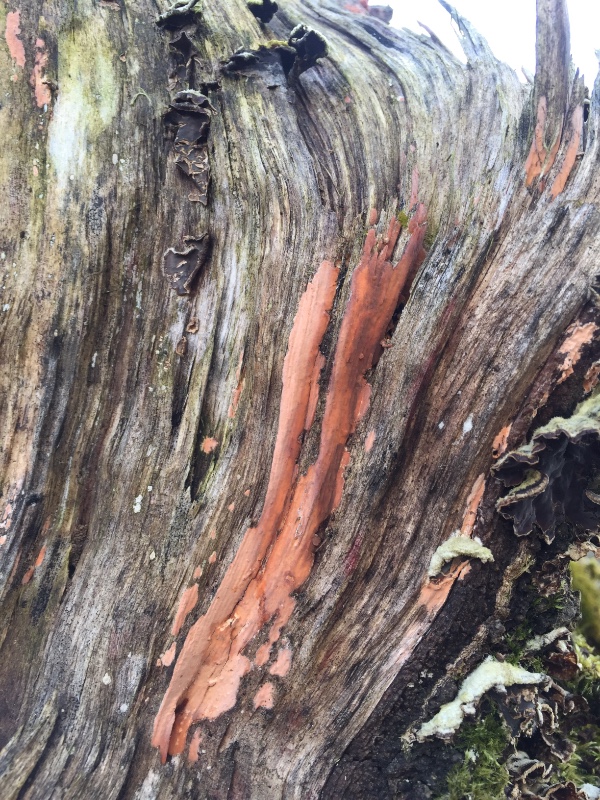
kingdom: Fungi
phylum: Basidiomycota
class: Agaricomycetes
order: Russulales
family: Peniophoraceae
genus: Peniophora
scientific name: Peniophora incarnata
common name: laksefarvet voksskind
